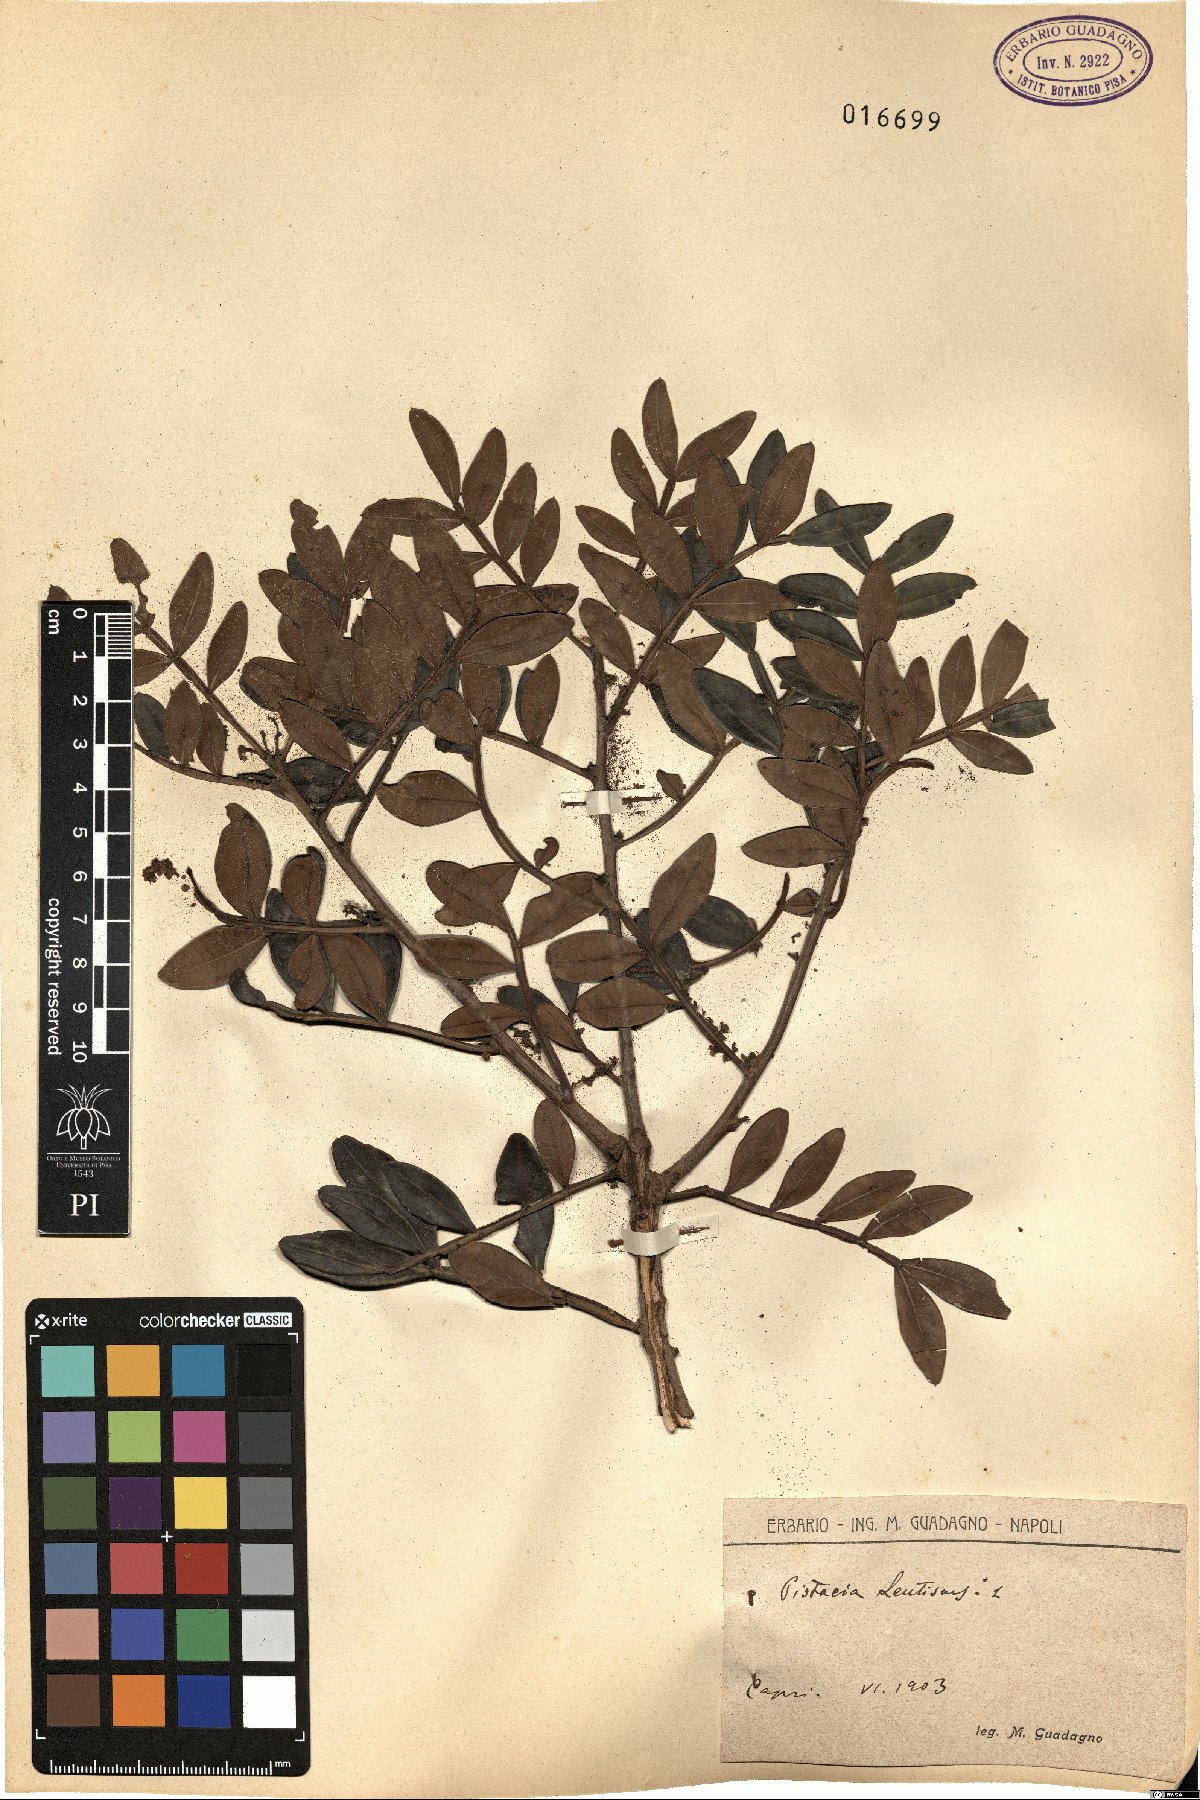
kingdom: Plantae
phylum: Tracheophyta
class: Magnoliopsida
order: Sapindales
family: Anacardiaceae
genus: Pistacia
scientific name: Pistacia lentiscus
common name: Lentisk
